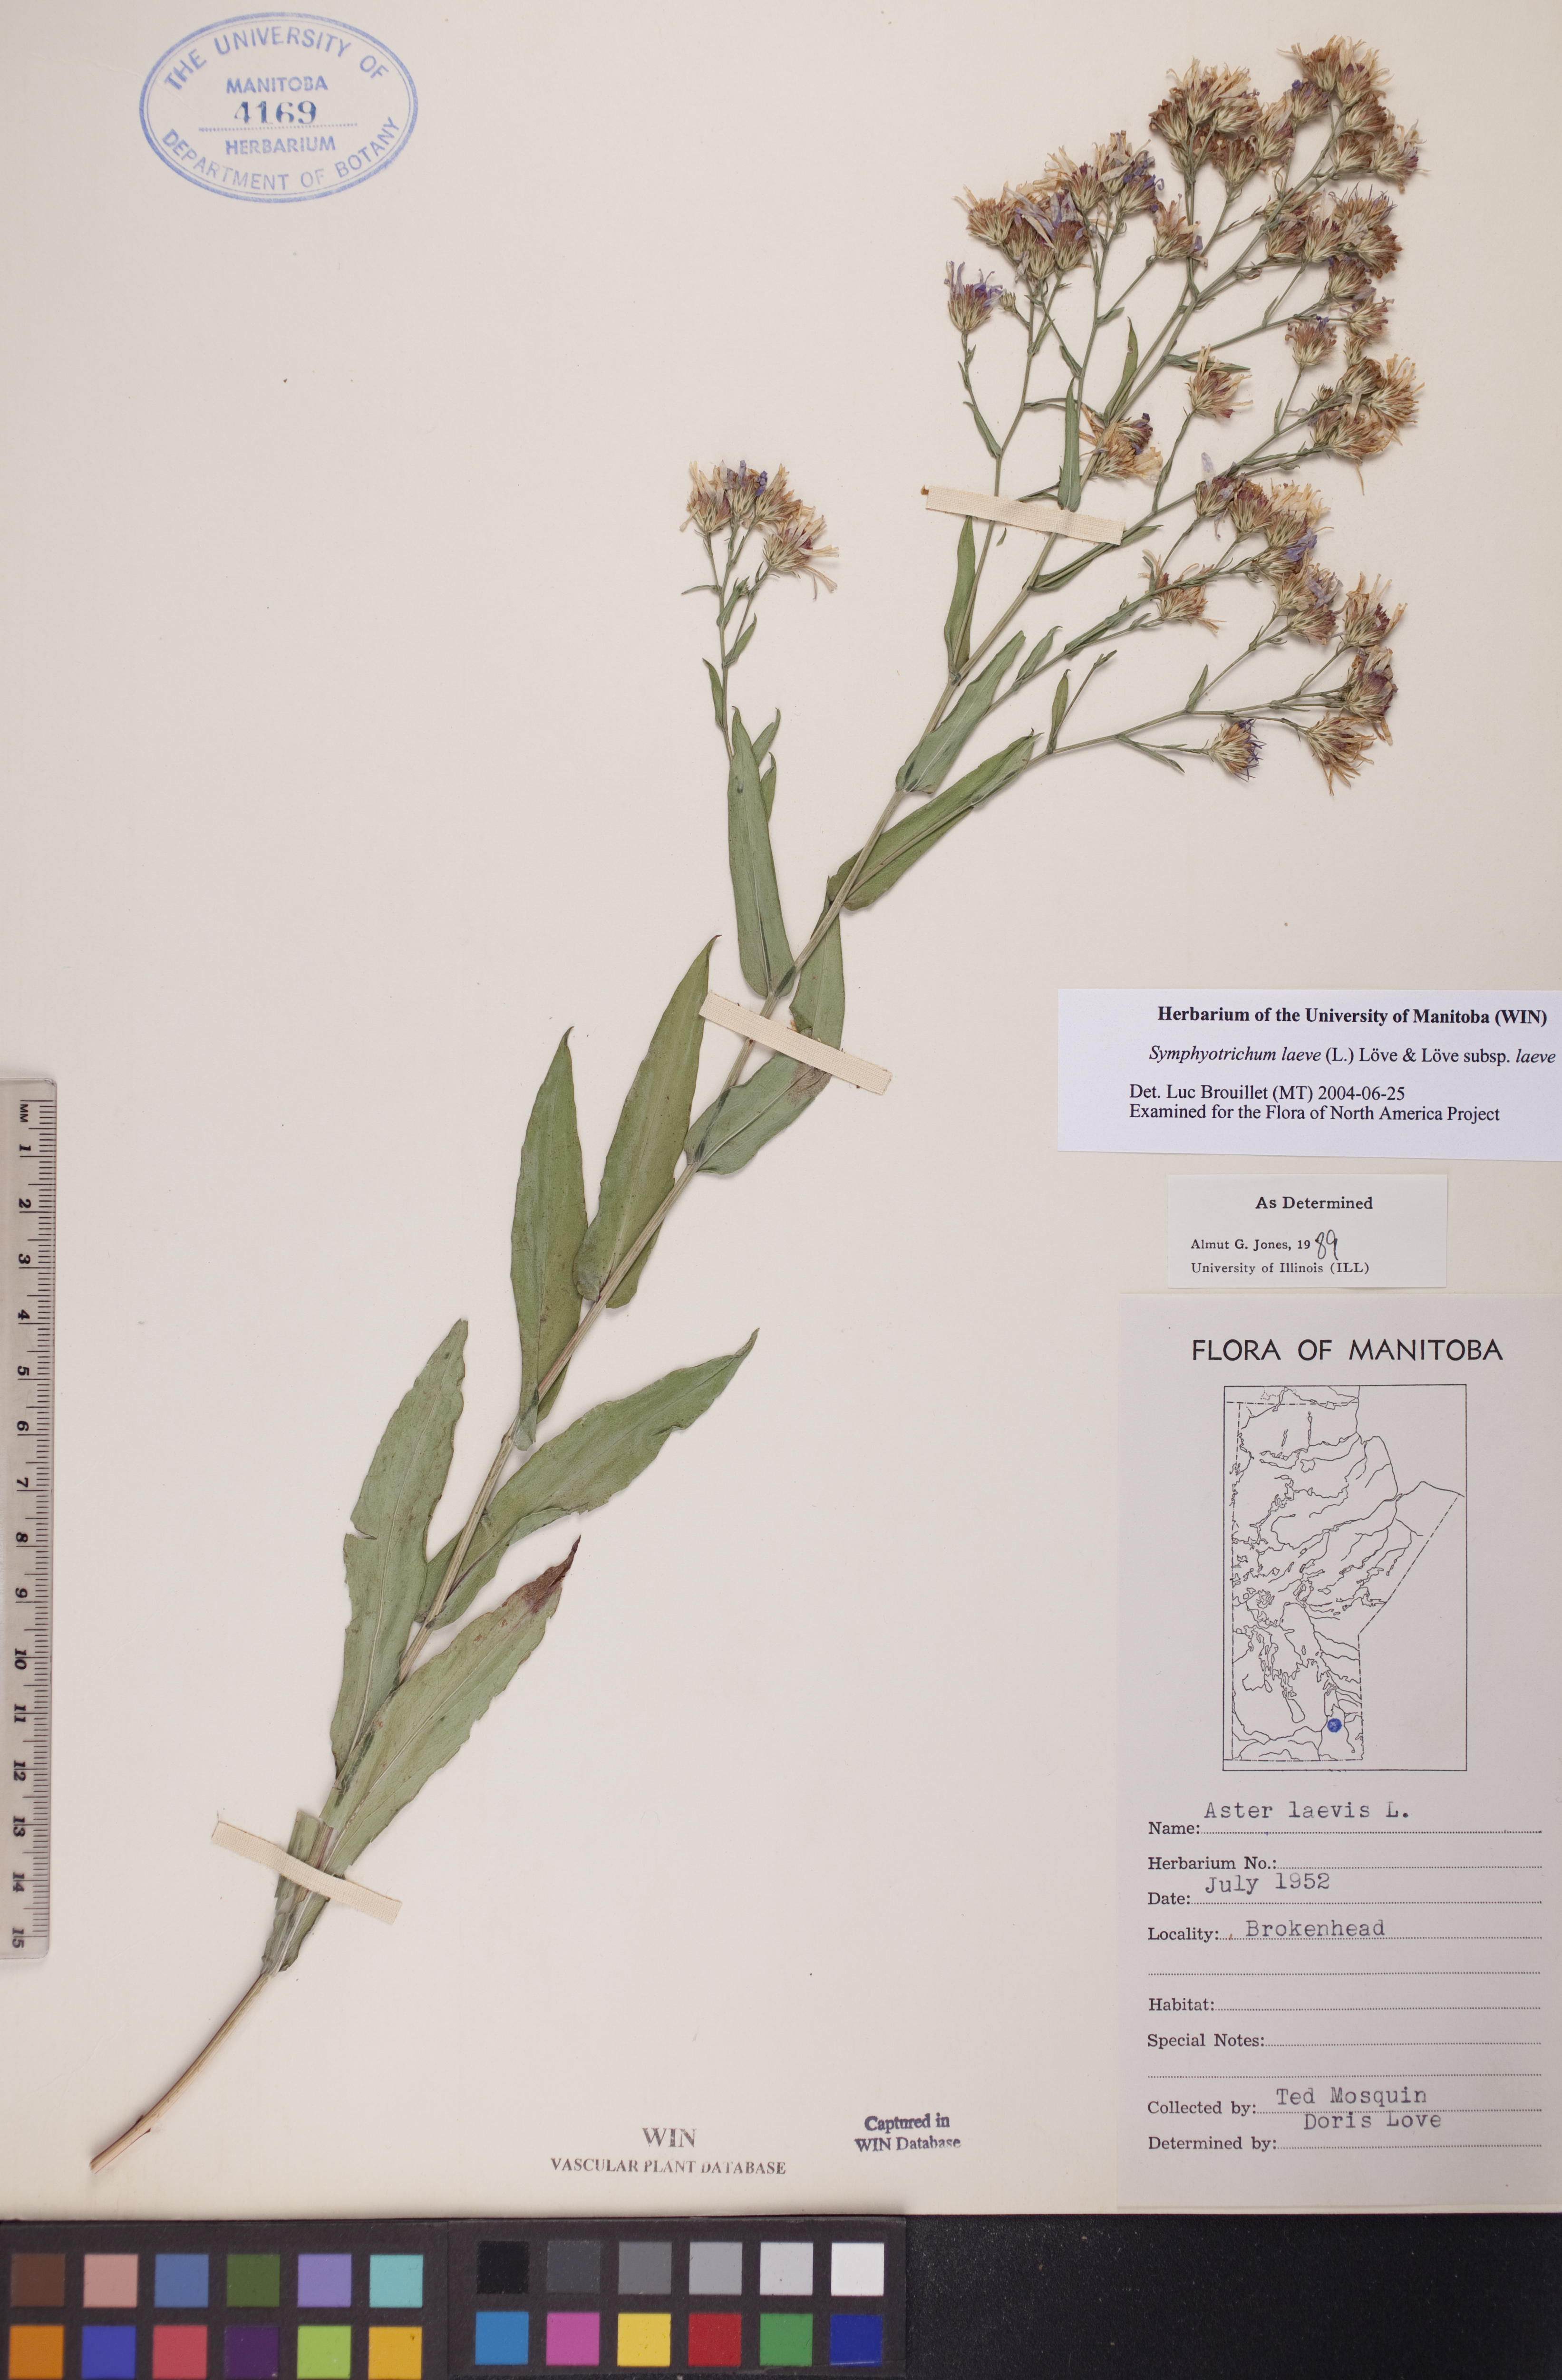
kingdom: Plantae
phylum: Tracheophyta
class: Magnoliopsida
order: Asterales
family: Asteraceae
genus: Symphyotrichum
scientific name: Symphyotrichum laeve
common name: Glaucous aster
